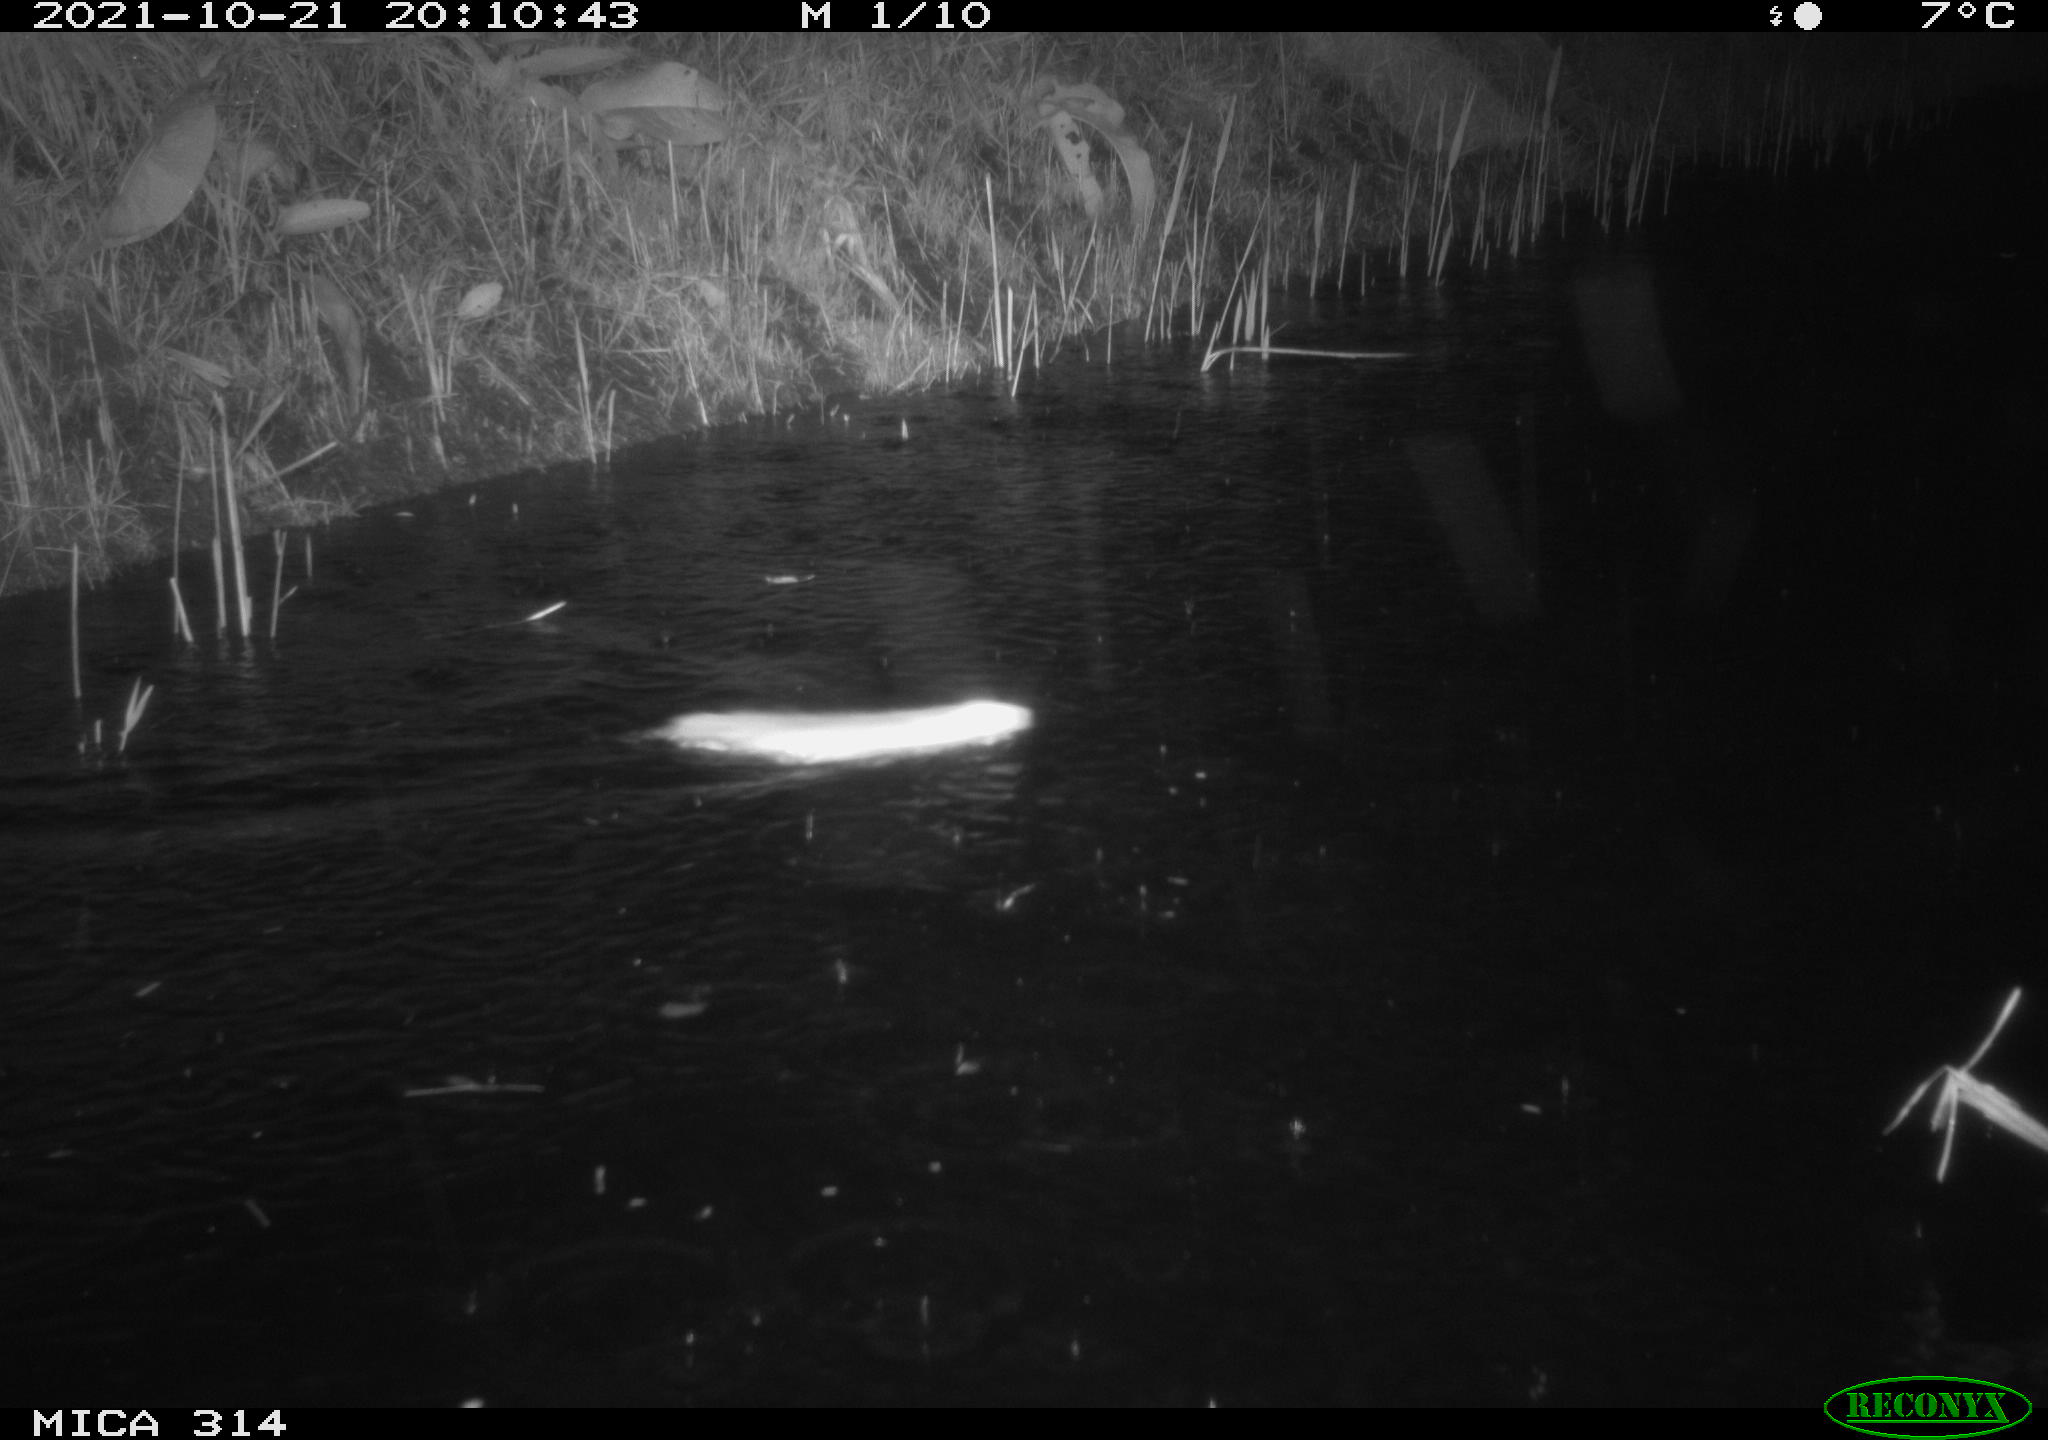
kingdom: Animalia
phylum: Chordata
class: Mammalia
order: Rodentia
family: Muridae
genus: Rattus
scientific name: Rattus norvegicus
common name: Brown rat
